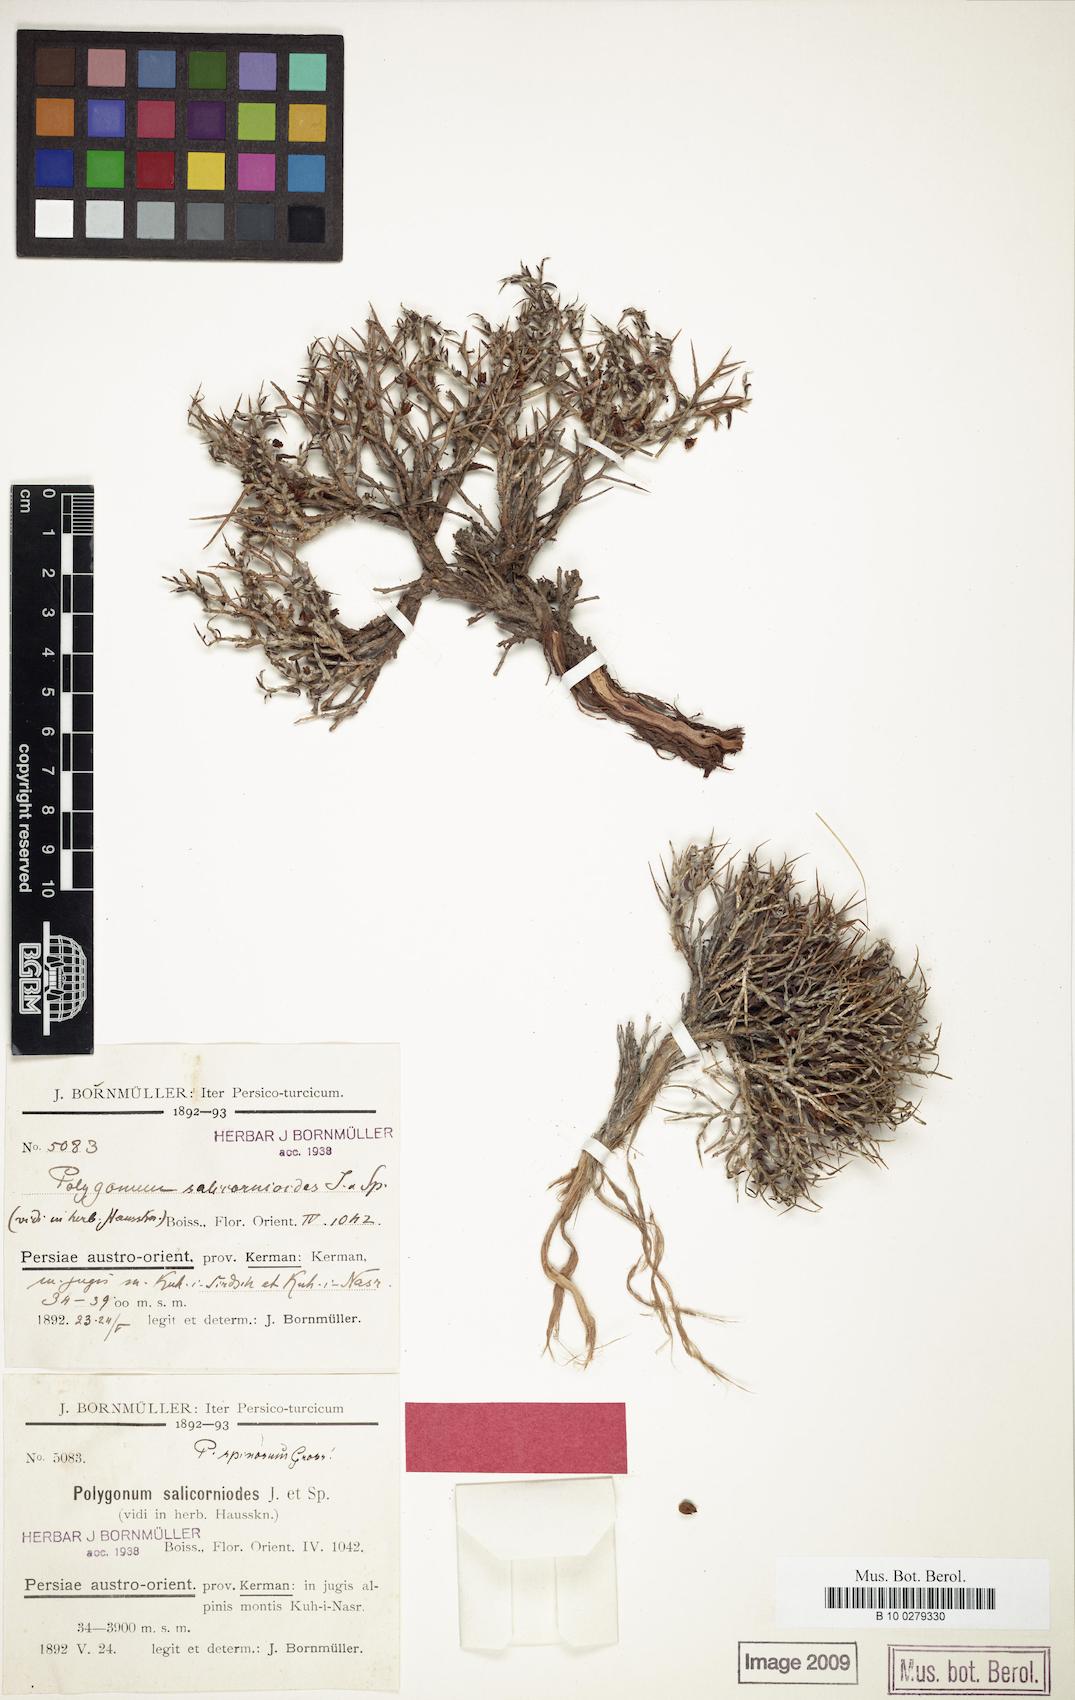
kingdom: Plantae
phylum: Tracheophyta
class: Magnoliopsida
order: Caryophyllales
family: Polygonaceae
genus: Atraphaxis
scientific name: Atraphaxis kermanica
